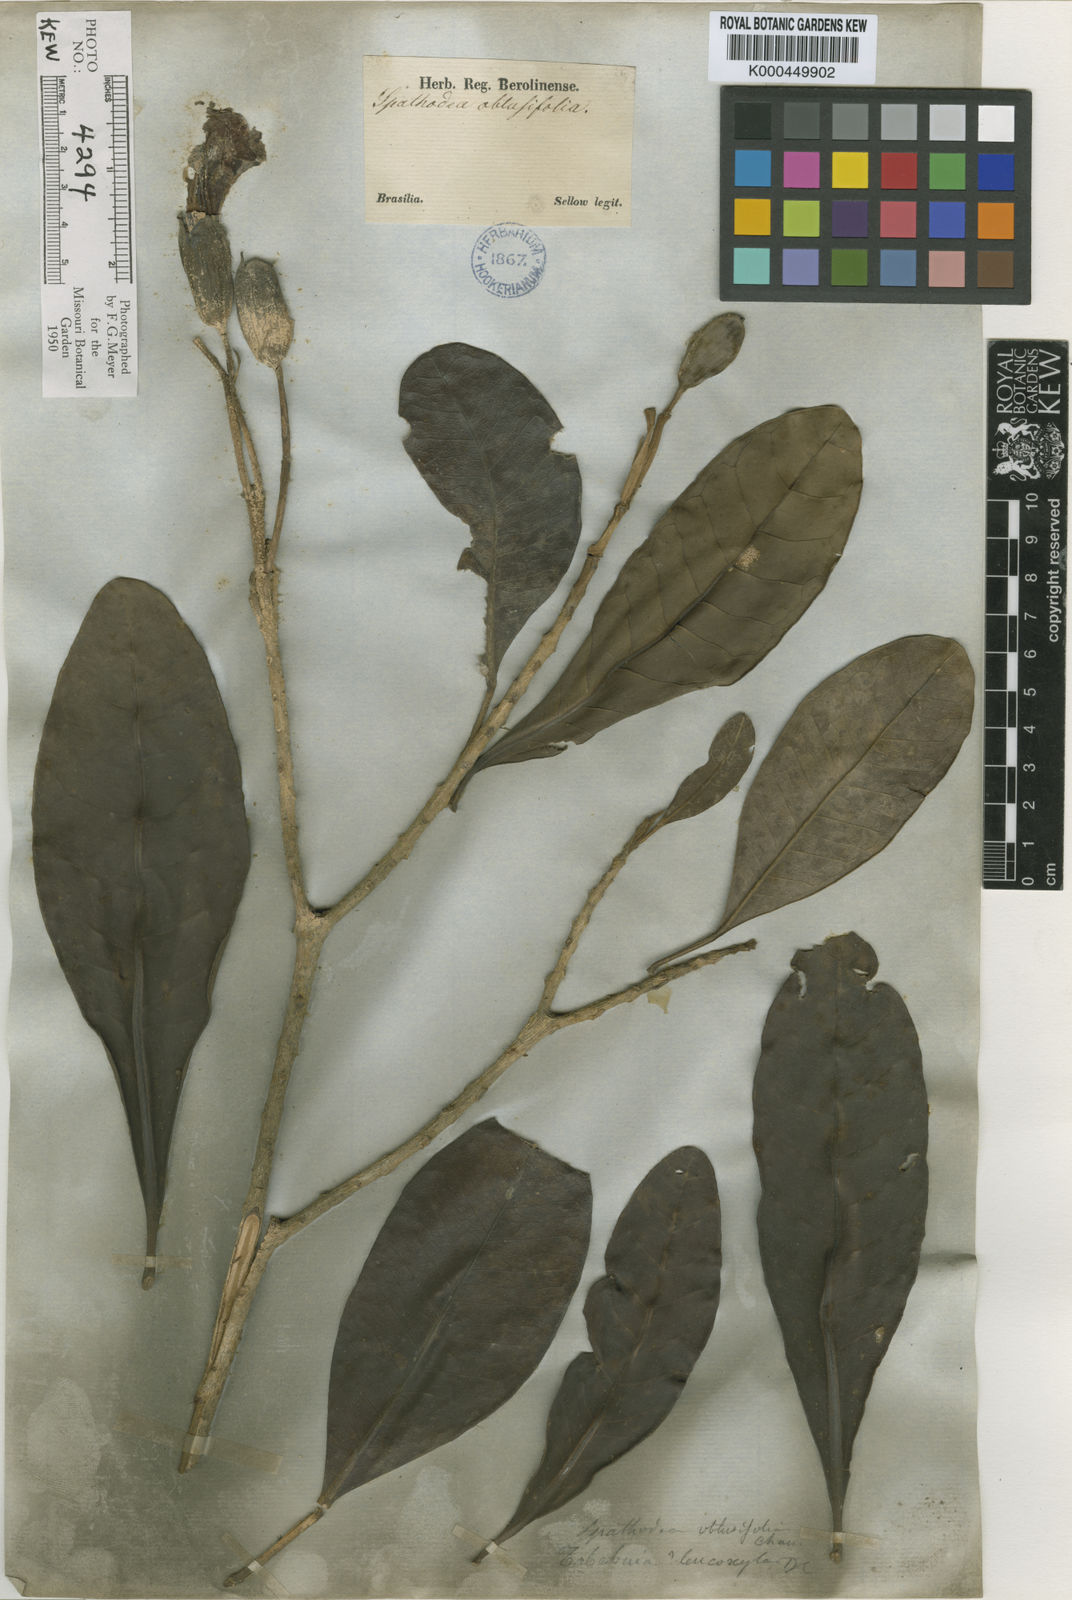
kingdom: Plantae
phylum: Tracheophyta
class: Magnoliopsida
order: Lamiales
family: Bignoniaceae
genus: Tabebuia
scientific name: Tabebuia obtusifolia
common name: Guadeloupe trumpet-tree
